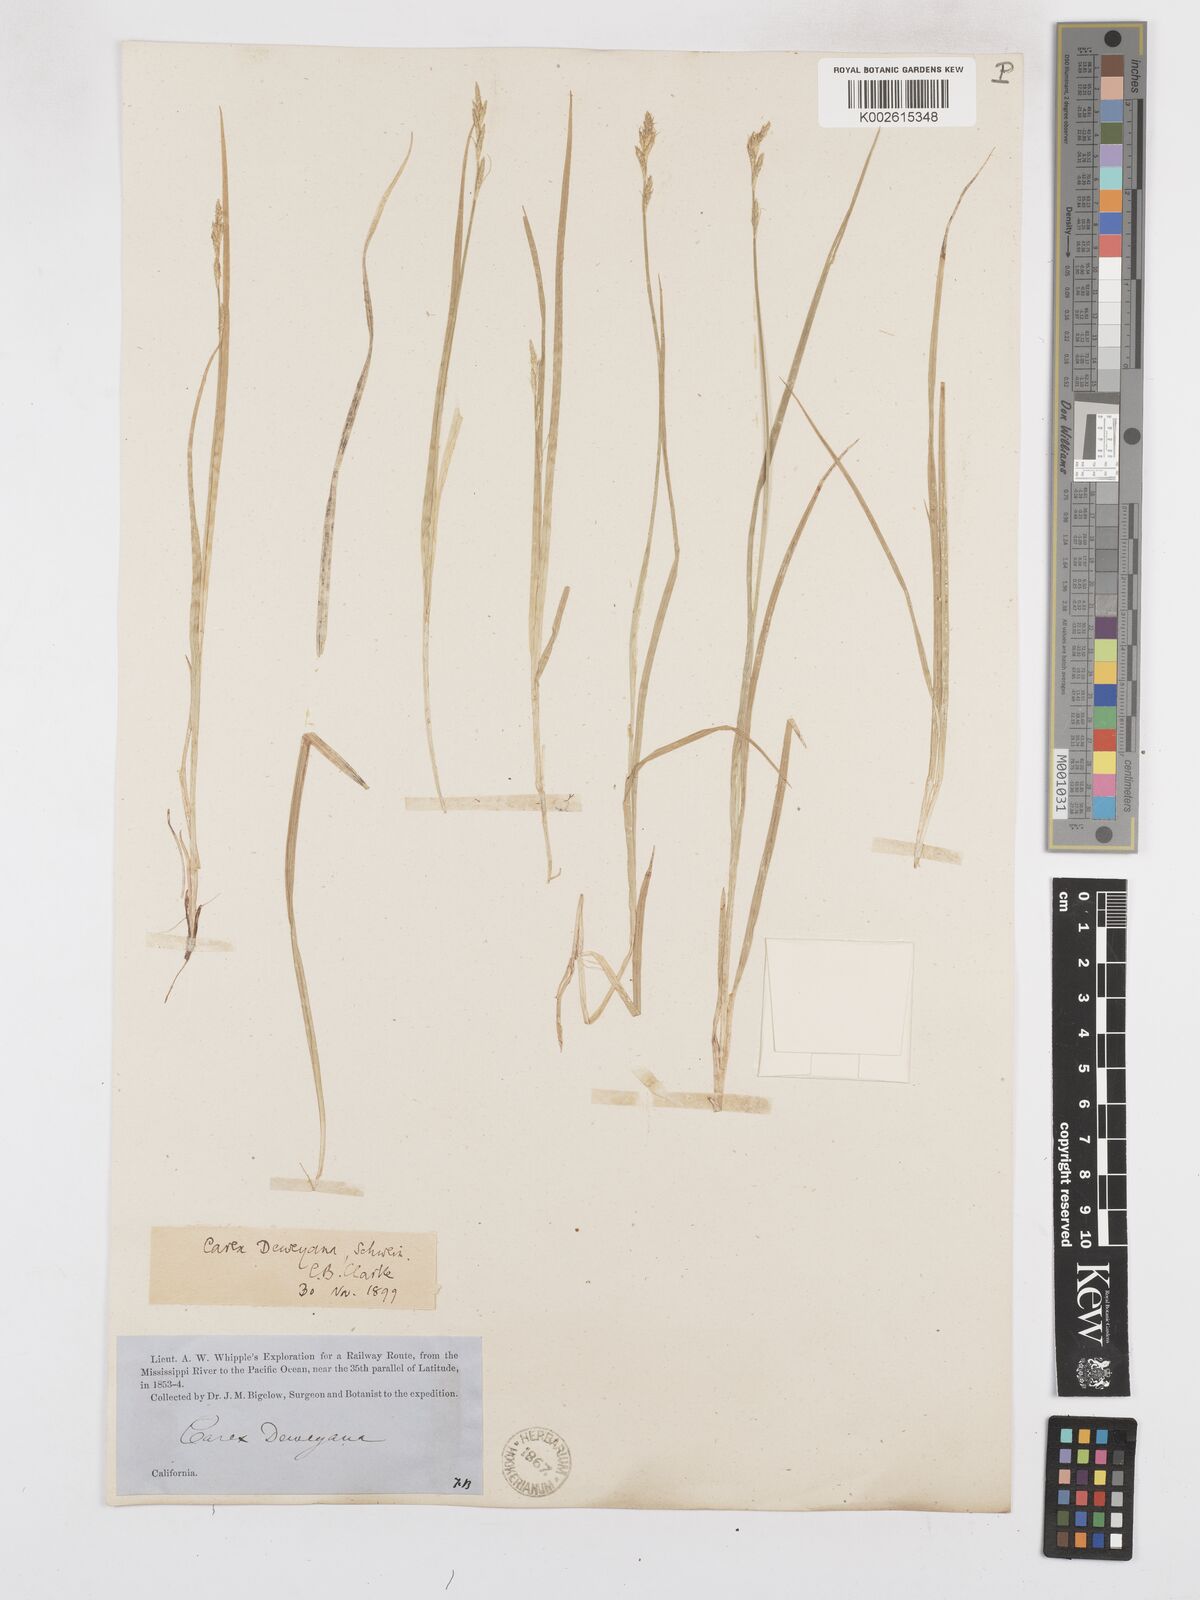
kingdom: Plantae
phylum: Tracheophyta
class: Liliopsida
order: Poales
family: Cyperaceae
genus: Carex
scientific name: Carex deweyana
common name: Dewey's sedge
